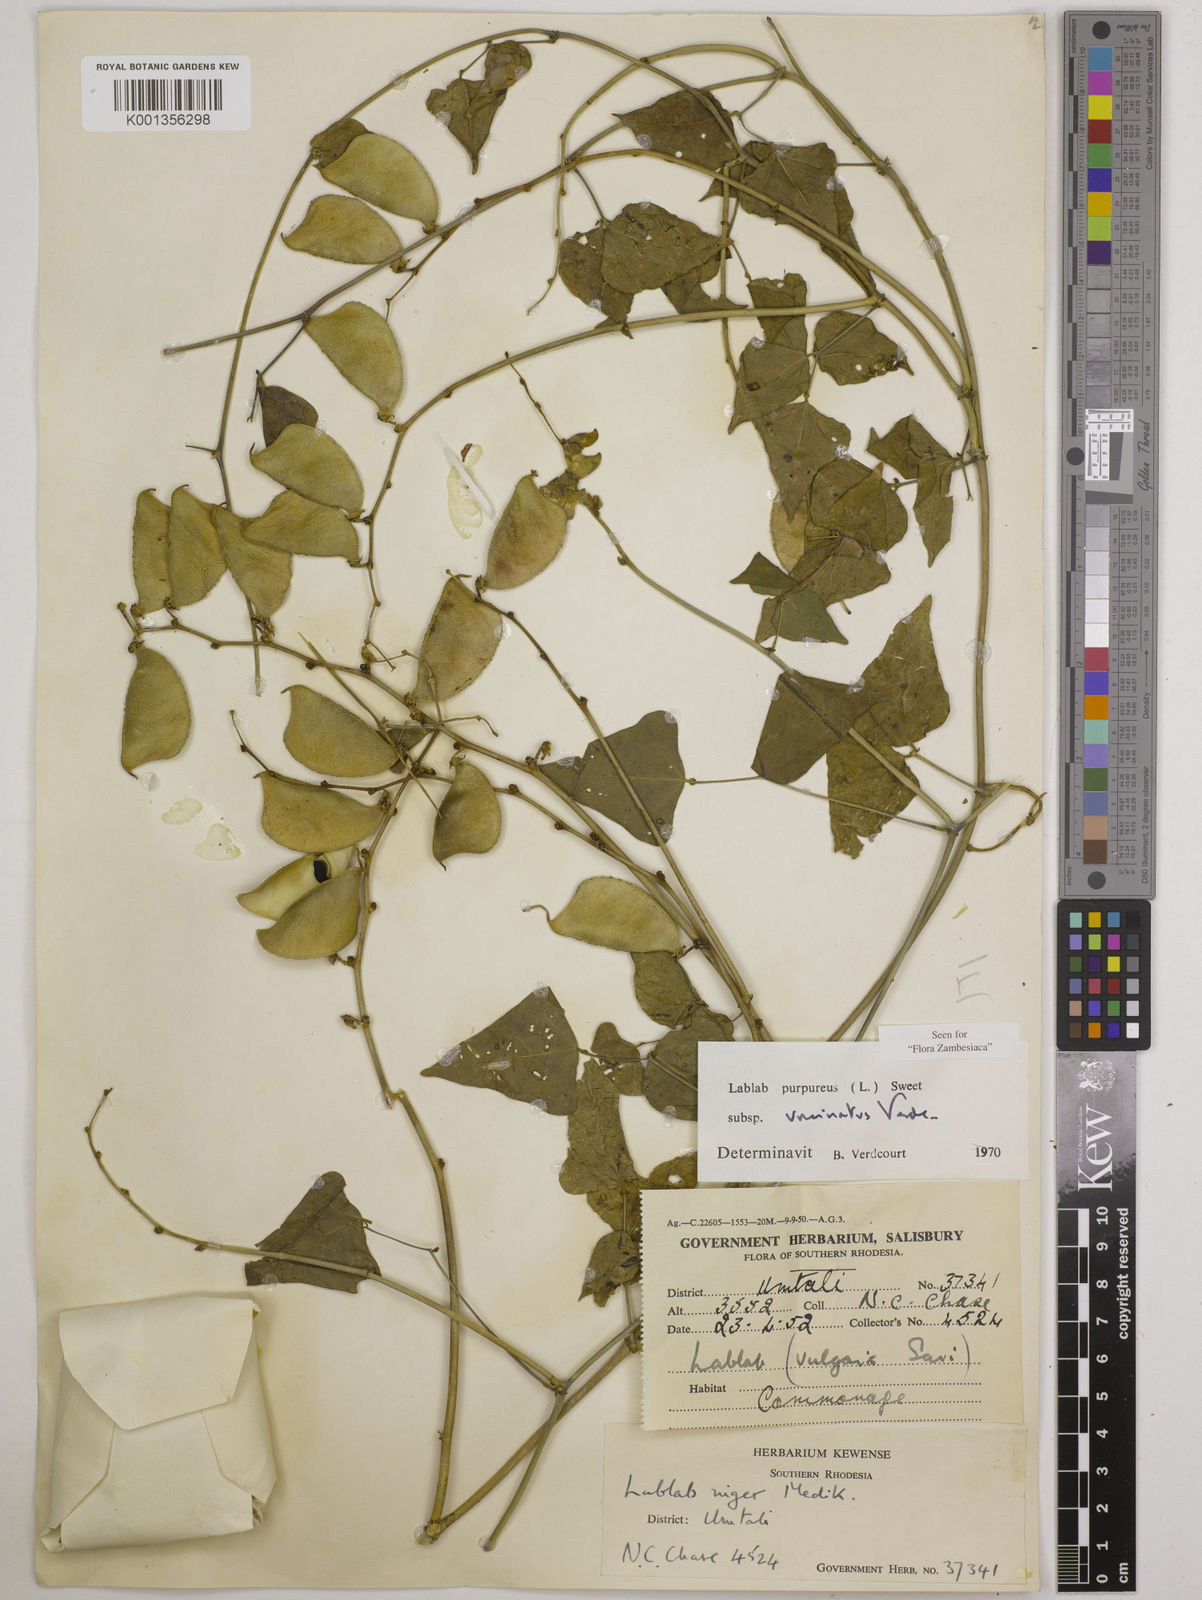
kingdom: Plantae
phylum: Tracheophyta
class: Magnoliopsida
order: Fabales
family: Fabaceae
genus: Lablab
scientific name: Lablab purpureus
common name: Lablab-bean
